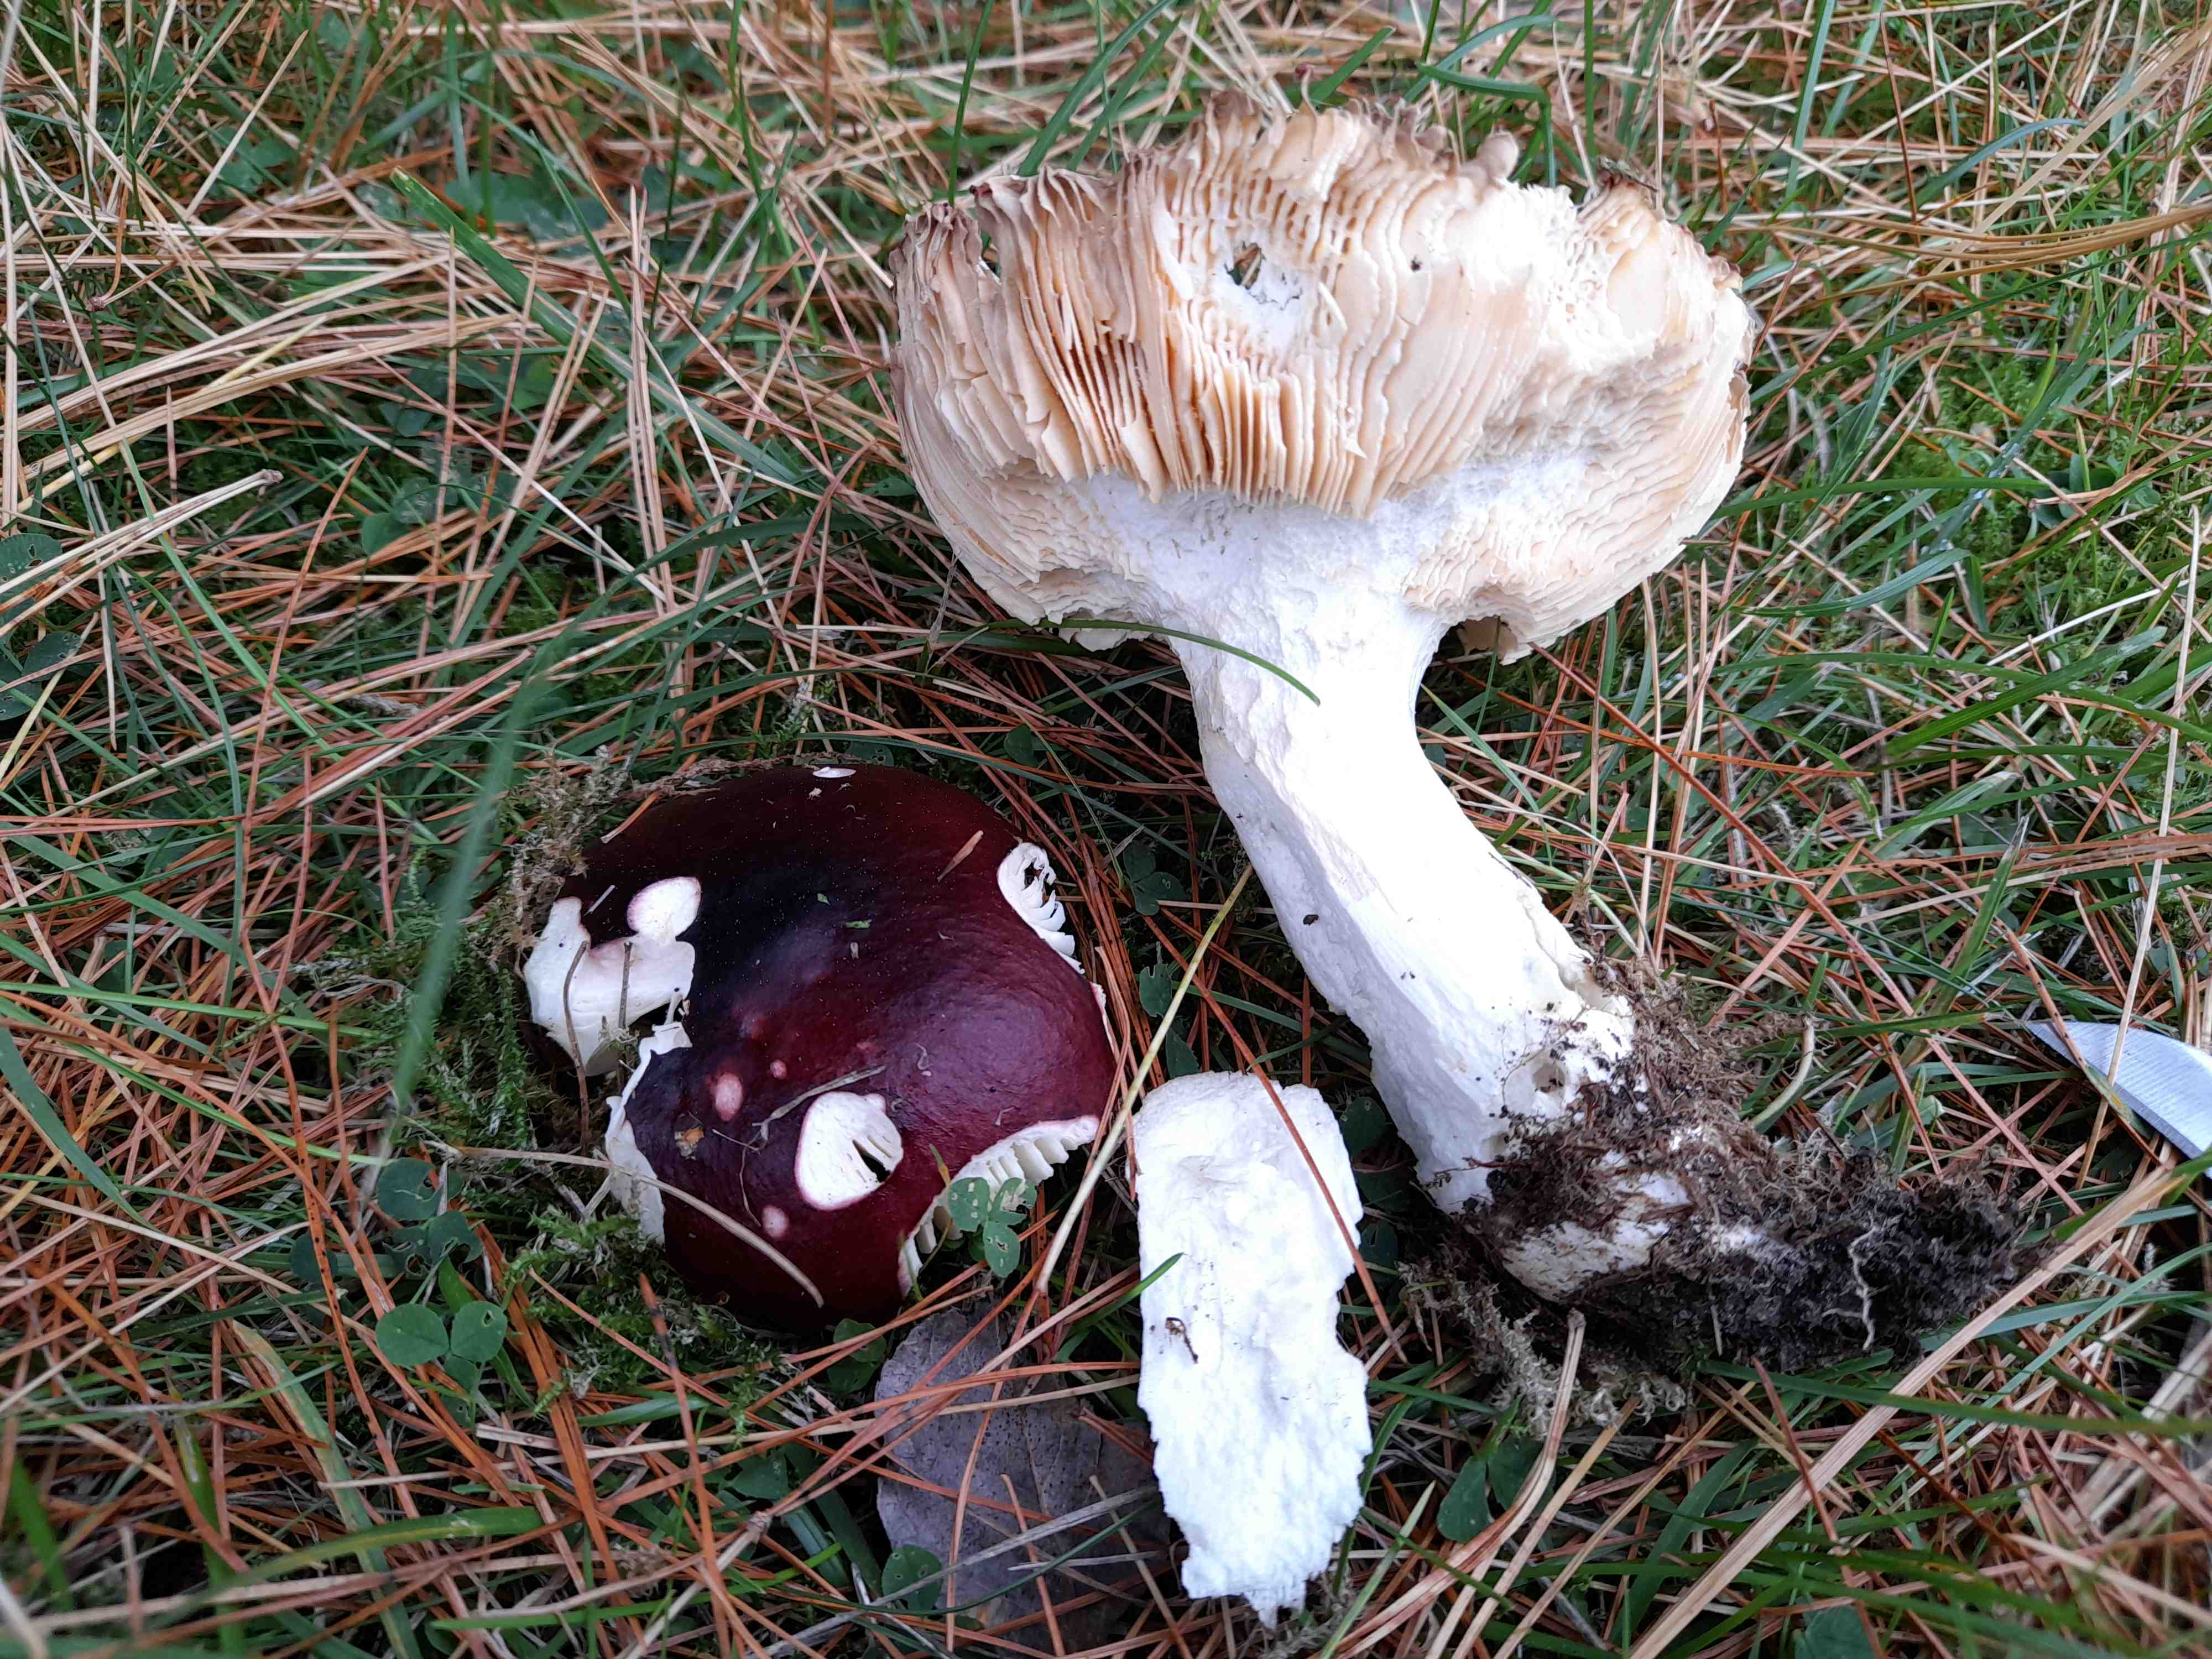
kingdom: Fungi
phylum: Basidiomycota
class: Agaricomycetes
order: Russulales
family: Russulaceae
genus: Russula
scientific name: Russula
